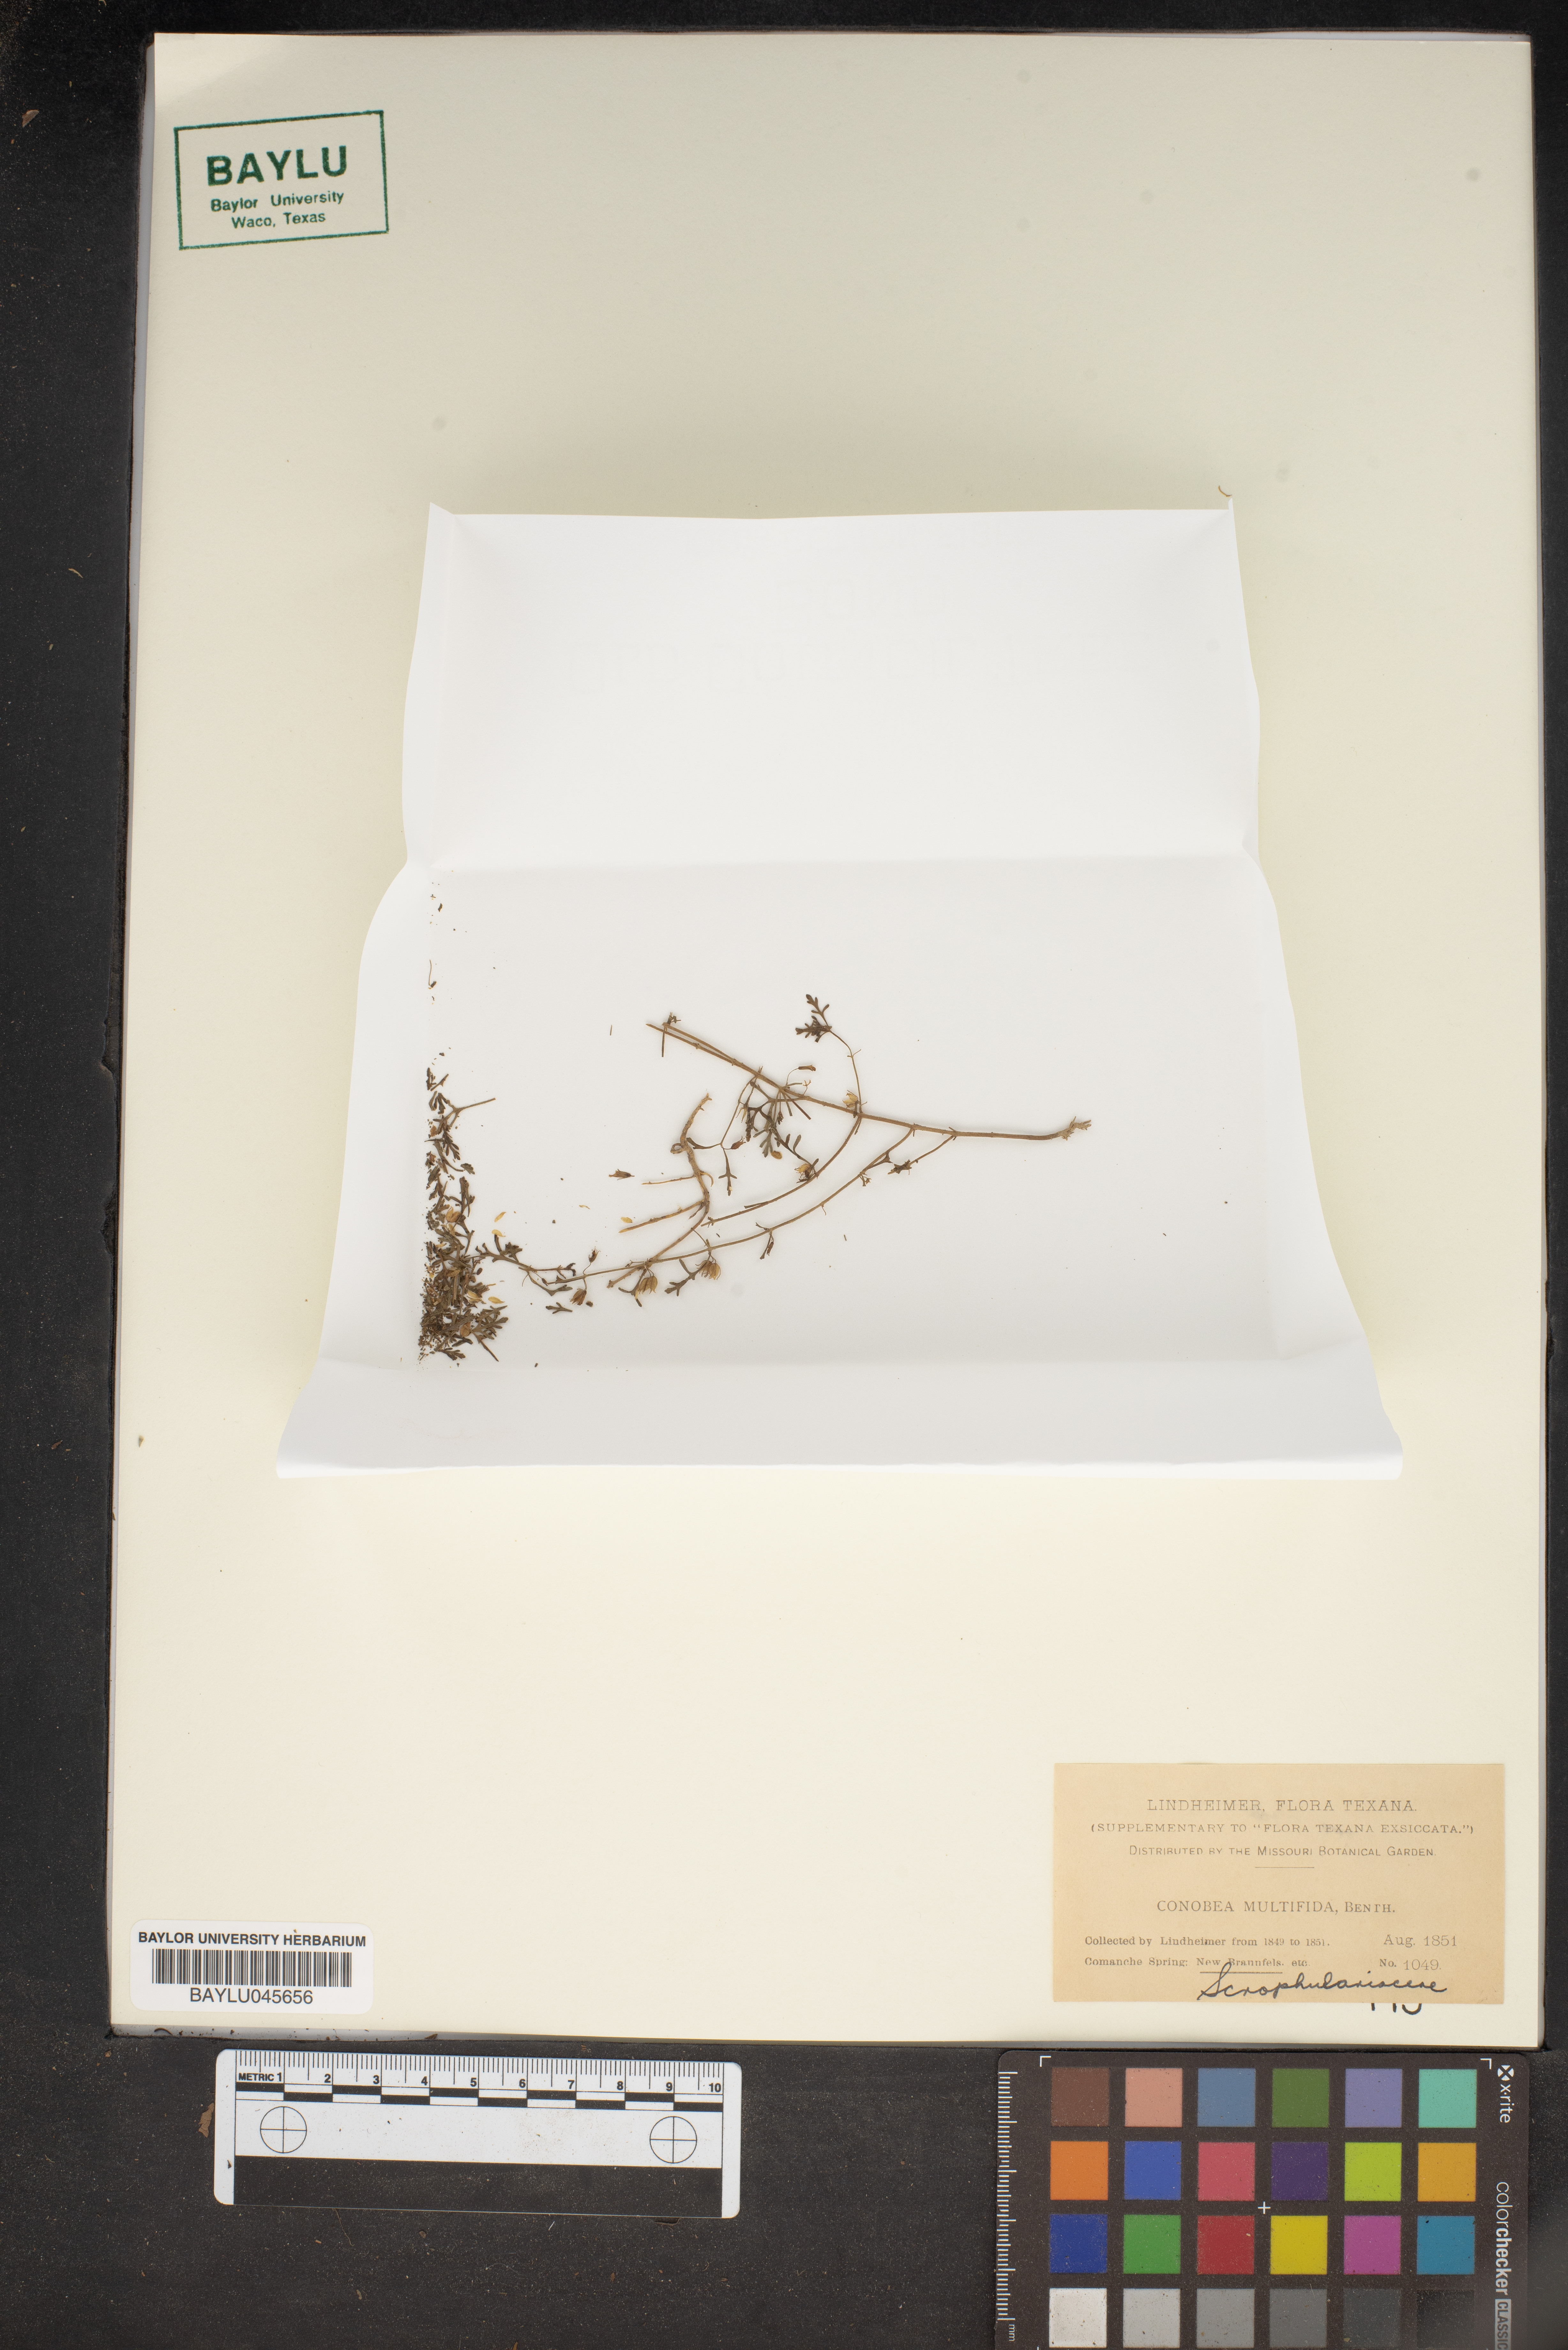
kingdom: Plantae
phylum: Tracheophyta
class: Magnoliopsida
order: Lamiales
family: Plantaginaceae
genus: Leucospora
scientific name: Leucospora multifida
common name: Narrow-leaf paleseed
